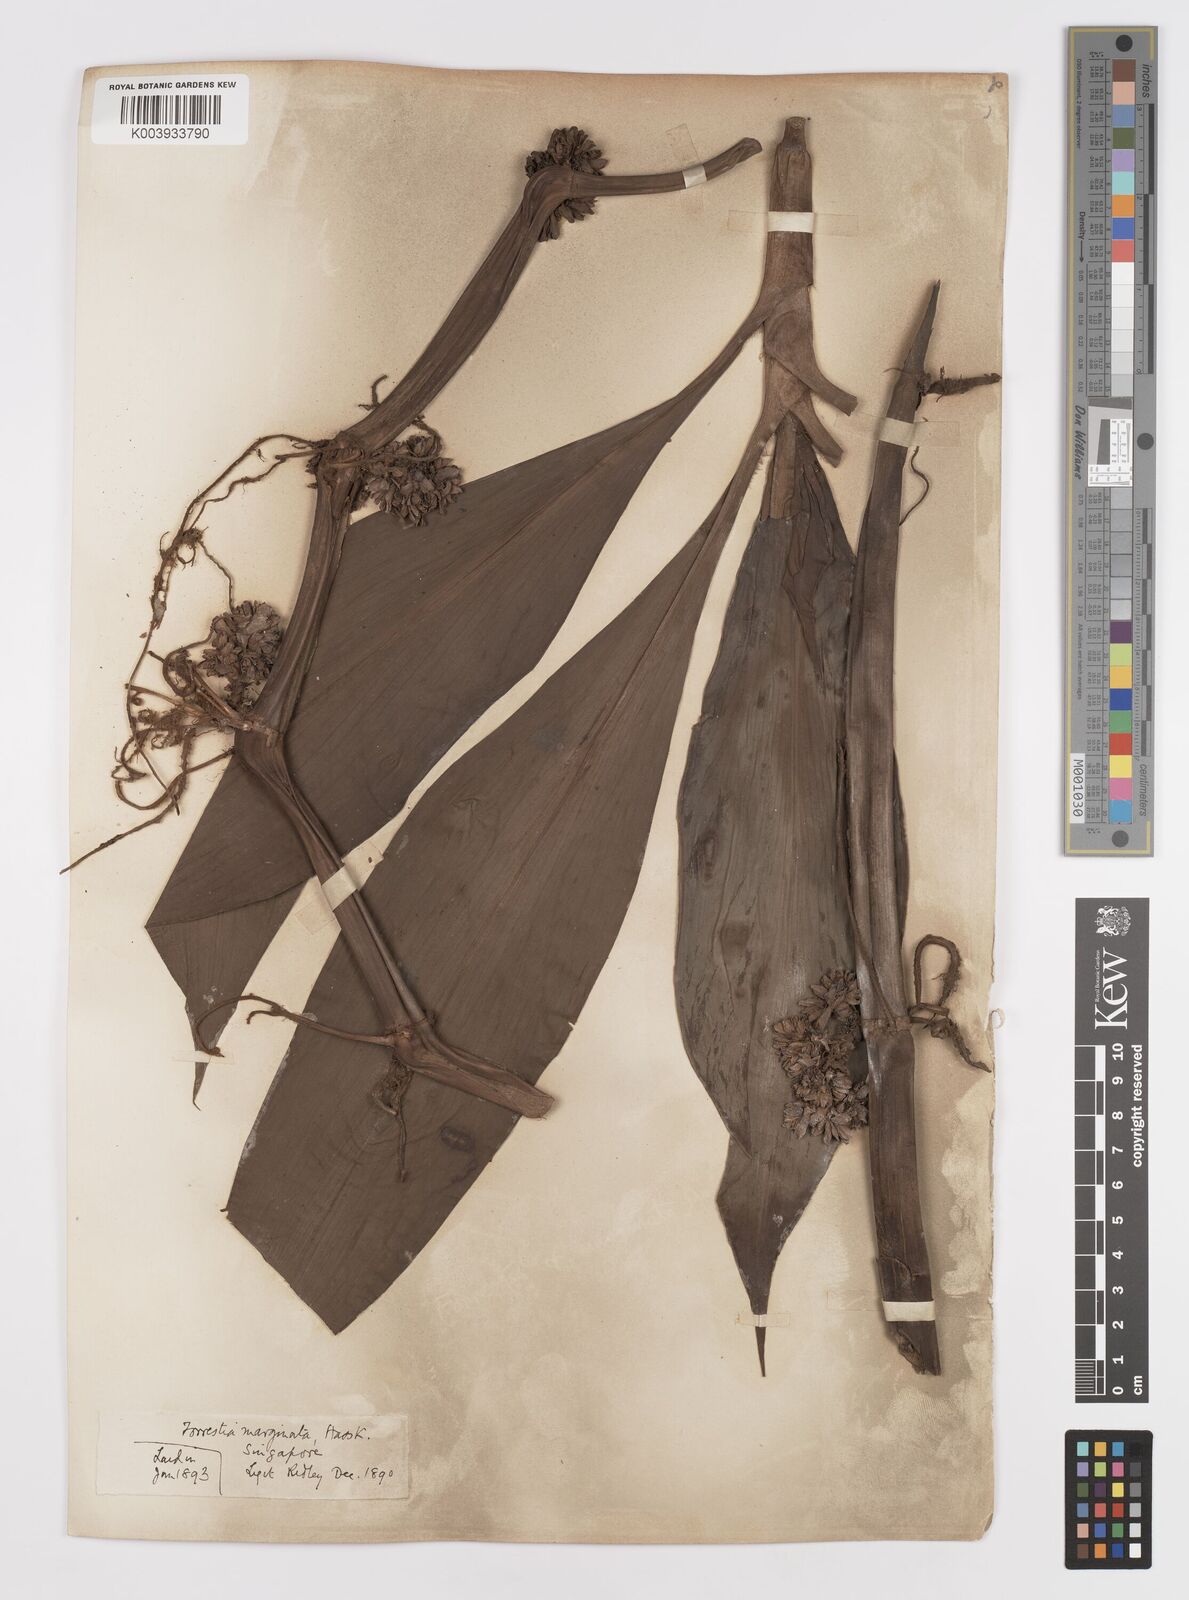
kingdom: Plantae
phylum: Tracheophyta
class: Liliopsida
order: Commelinales
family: Commelinaceae
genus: Amischotolype
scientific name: Amischotolype marginata
